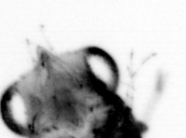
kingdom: Animalia
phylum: Arthropoda
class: Malacostraca
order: Decapoda
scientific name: Decapoda
